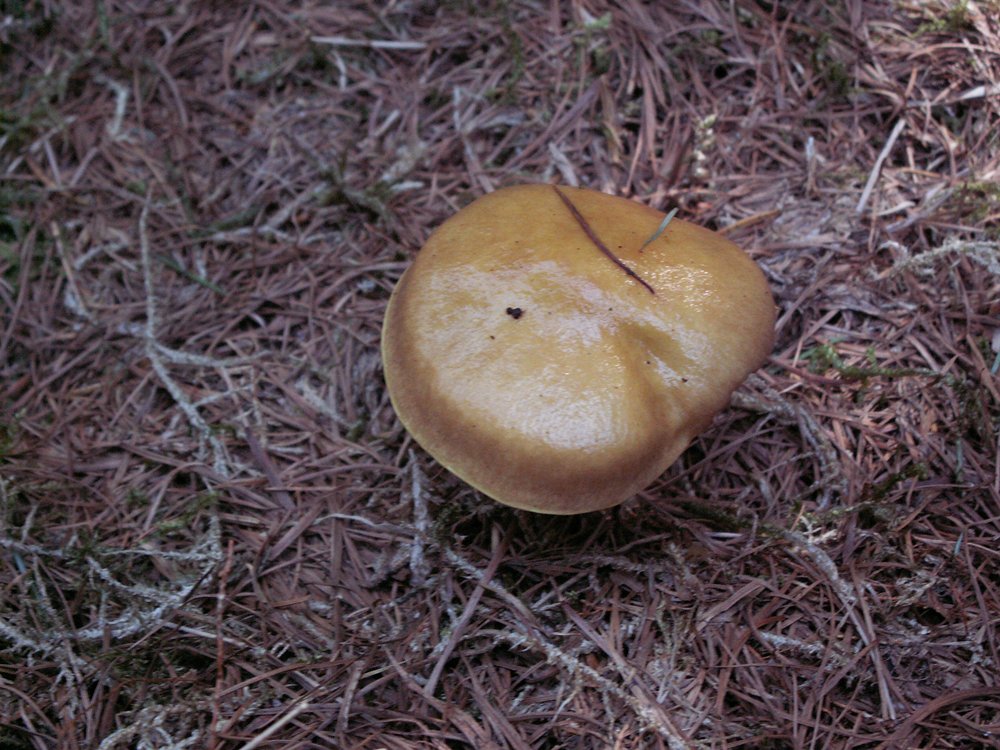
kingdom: Fungi
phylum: Basidiomycota
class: Agaricomycetes
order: Boletales
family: Suillaceae
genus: Suillus
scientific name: Suillus grevillei
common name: lærke-slimrørhat
